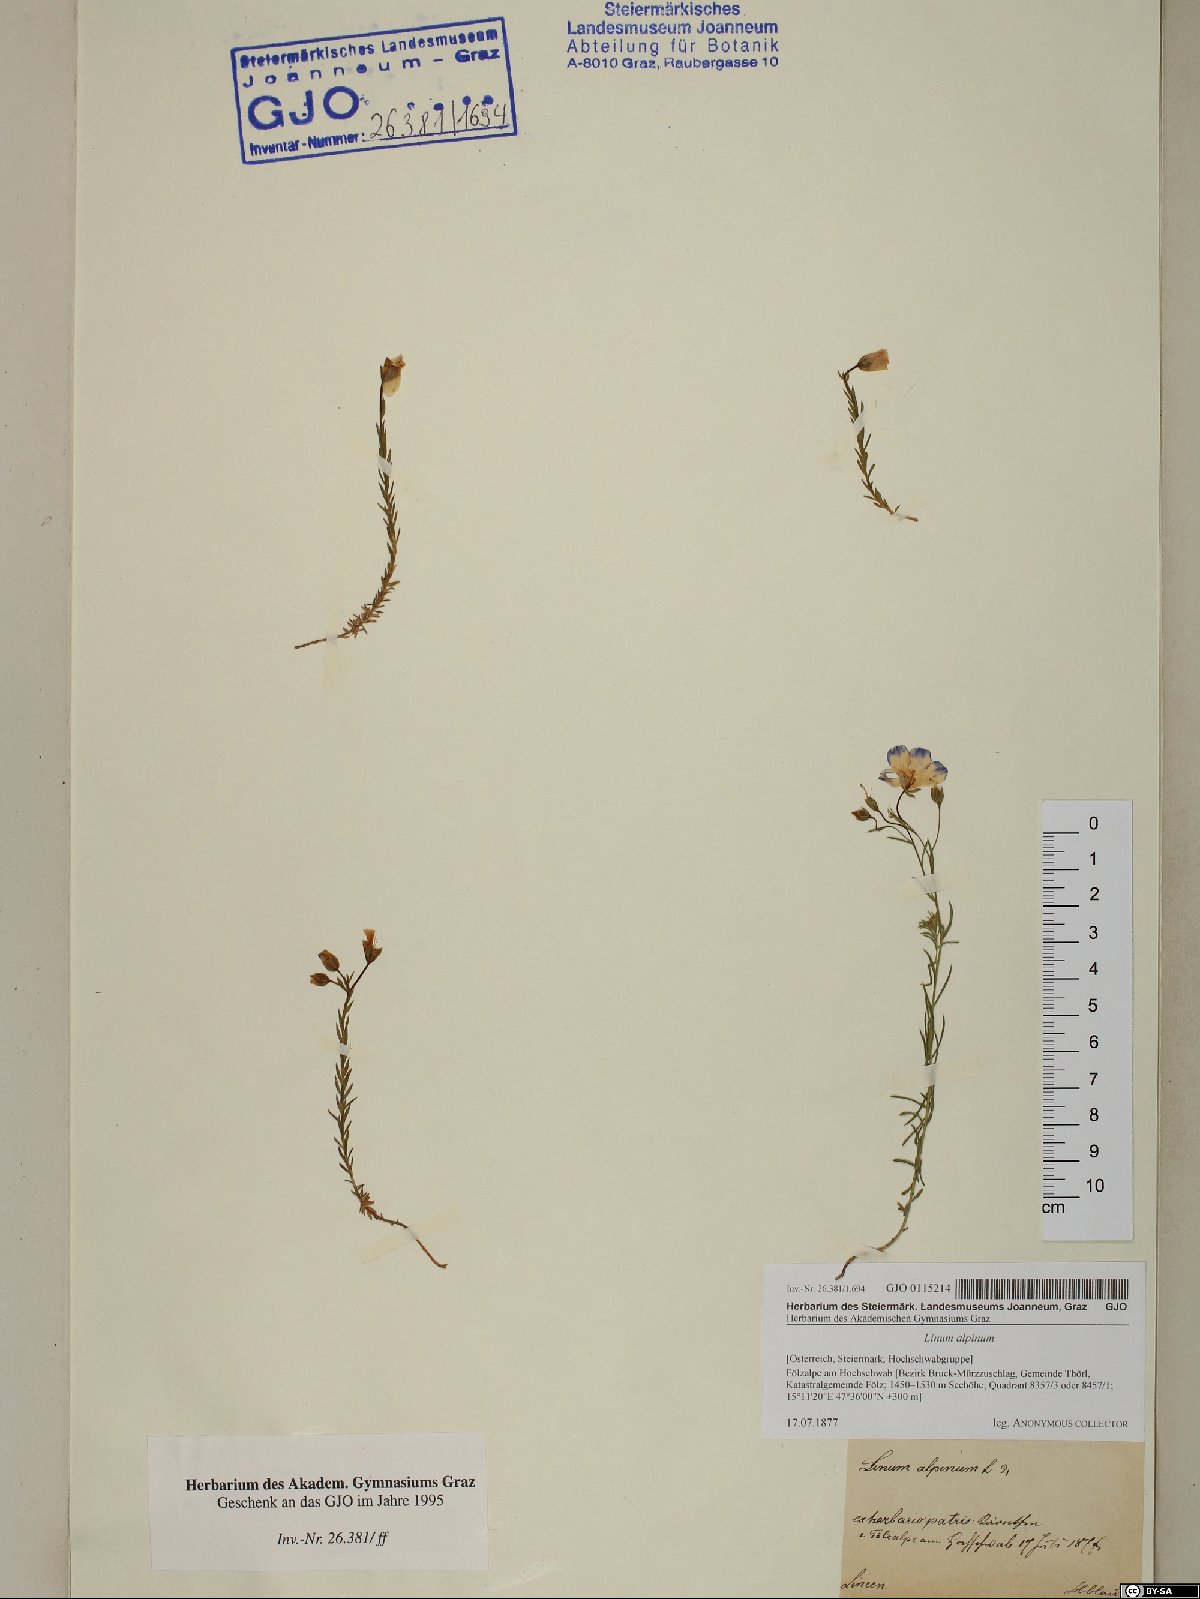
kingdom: Plantae
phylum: Tracheophyta
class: Magnoliopsida
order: Malpighiales
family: Linaceae
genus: Linum
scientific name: Linum alpinum
